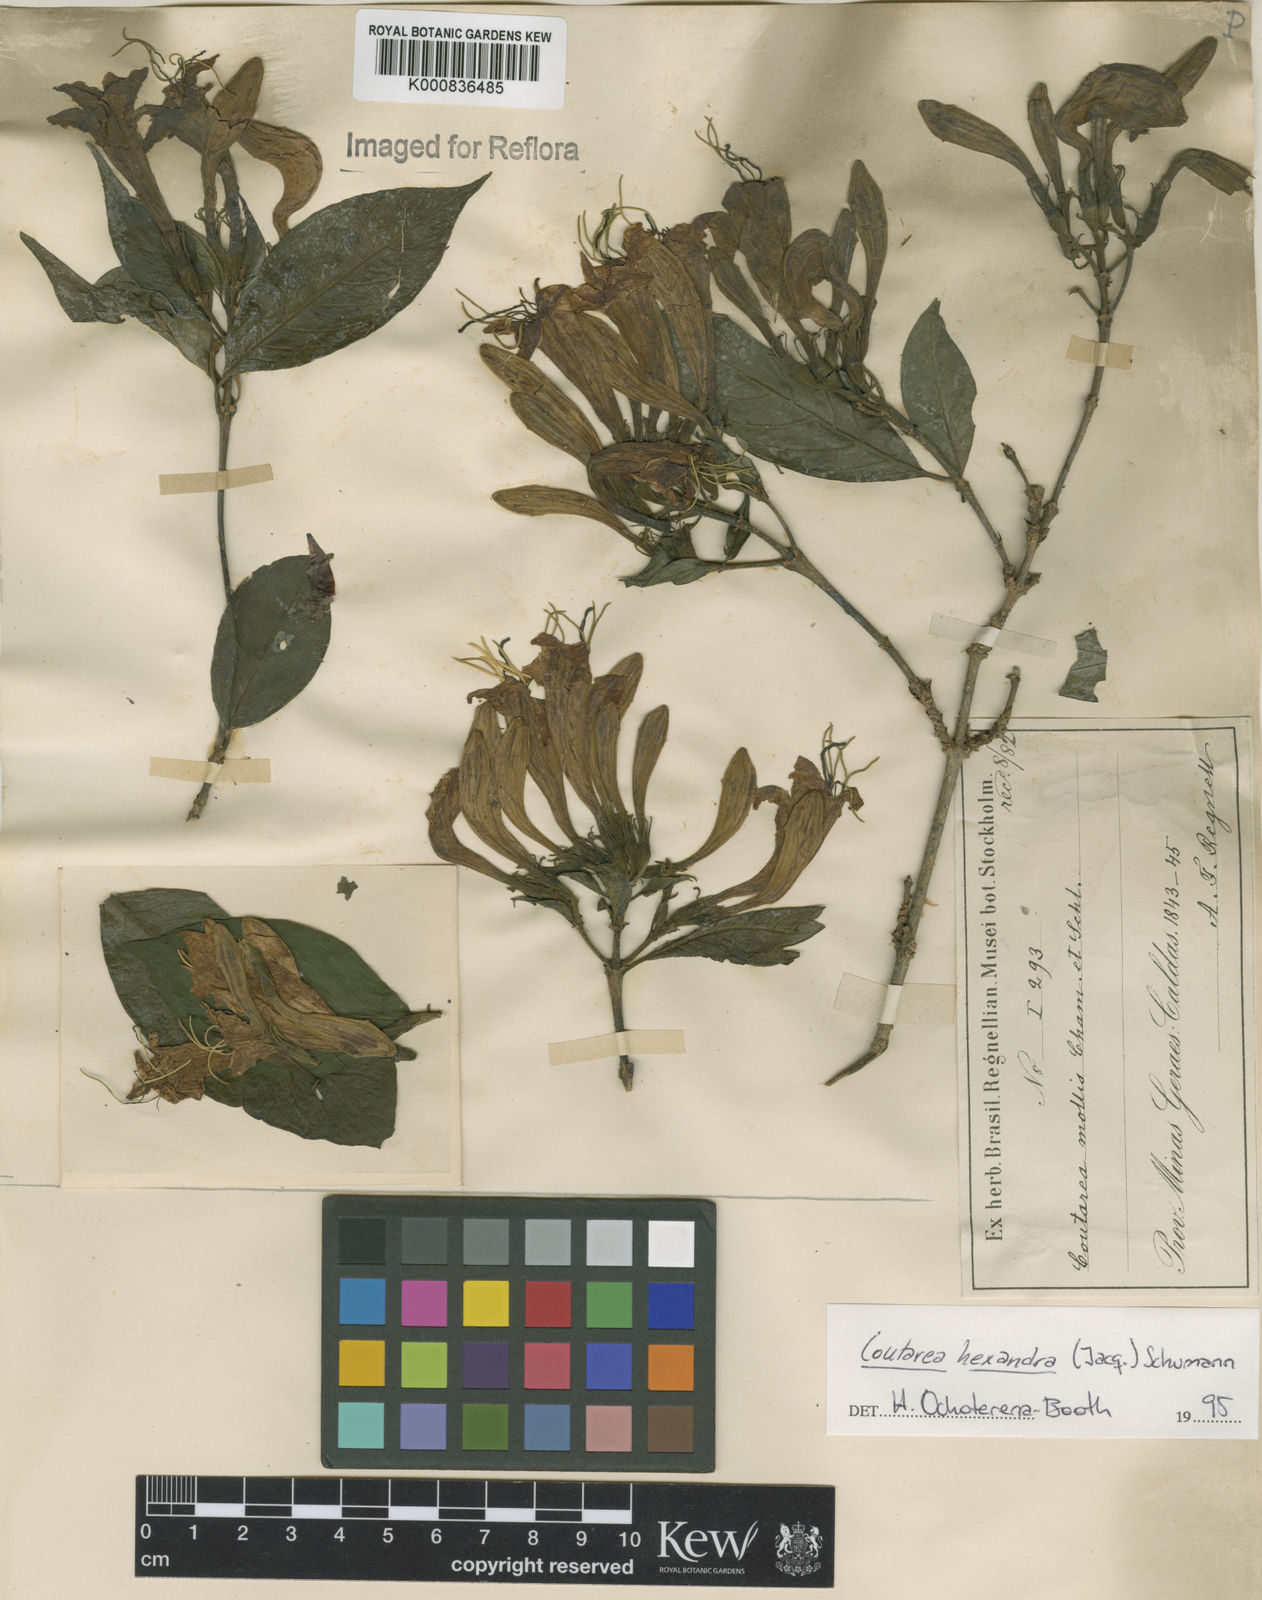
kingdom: Plantae
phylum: Tracheophyta
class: Magnoliopsida
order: Gentianales
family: Rubiaceae
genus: Coutarea
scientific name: Coutarea hexandra
